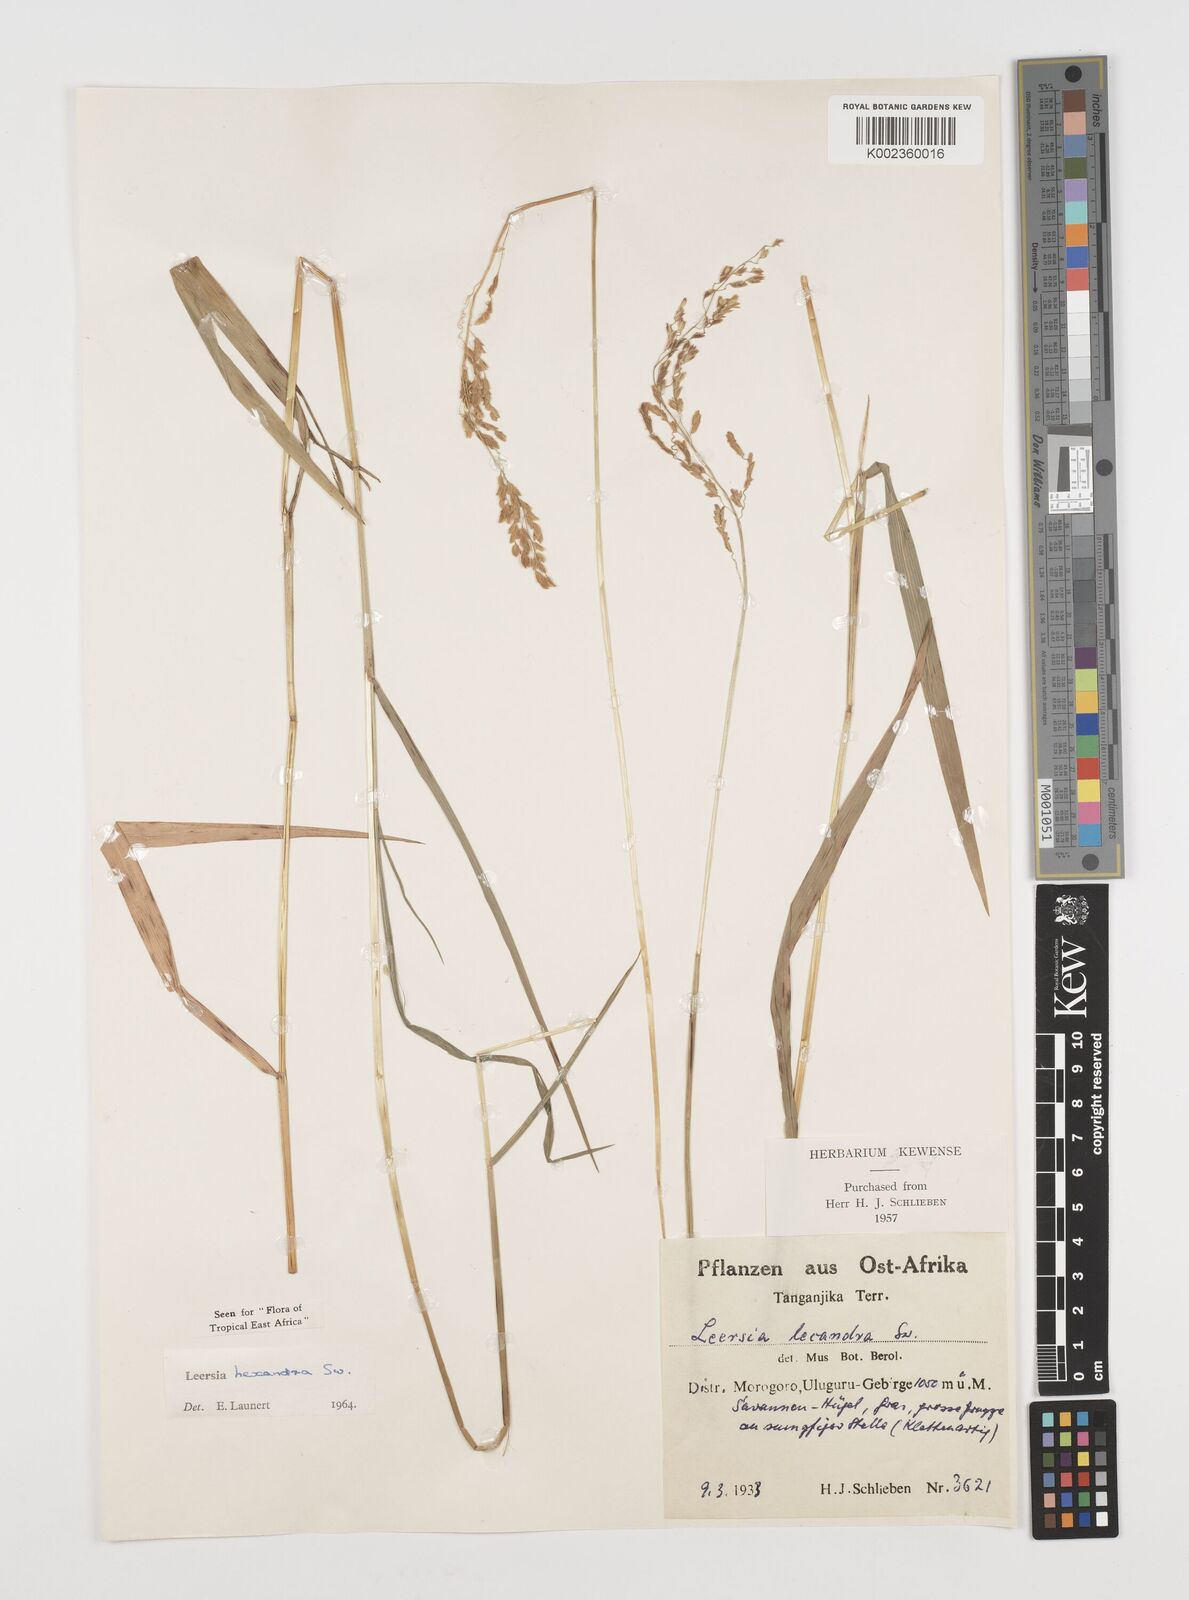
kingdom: Plantae
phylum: Tracheophyta
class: Liliopsida
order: Poales
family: Poaceae
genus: Leersia
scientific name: Leersia hexandra
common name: Southern cut grass
